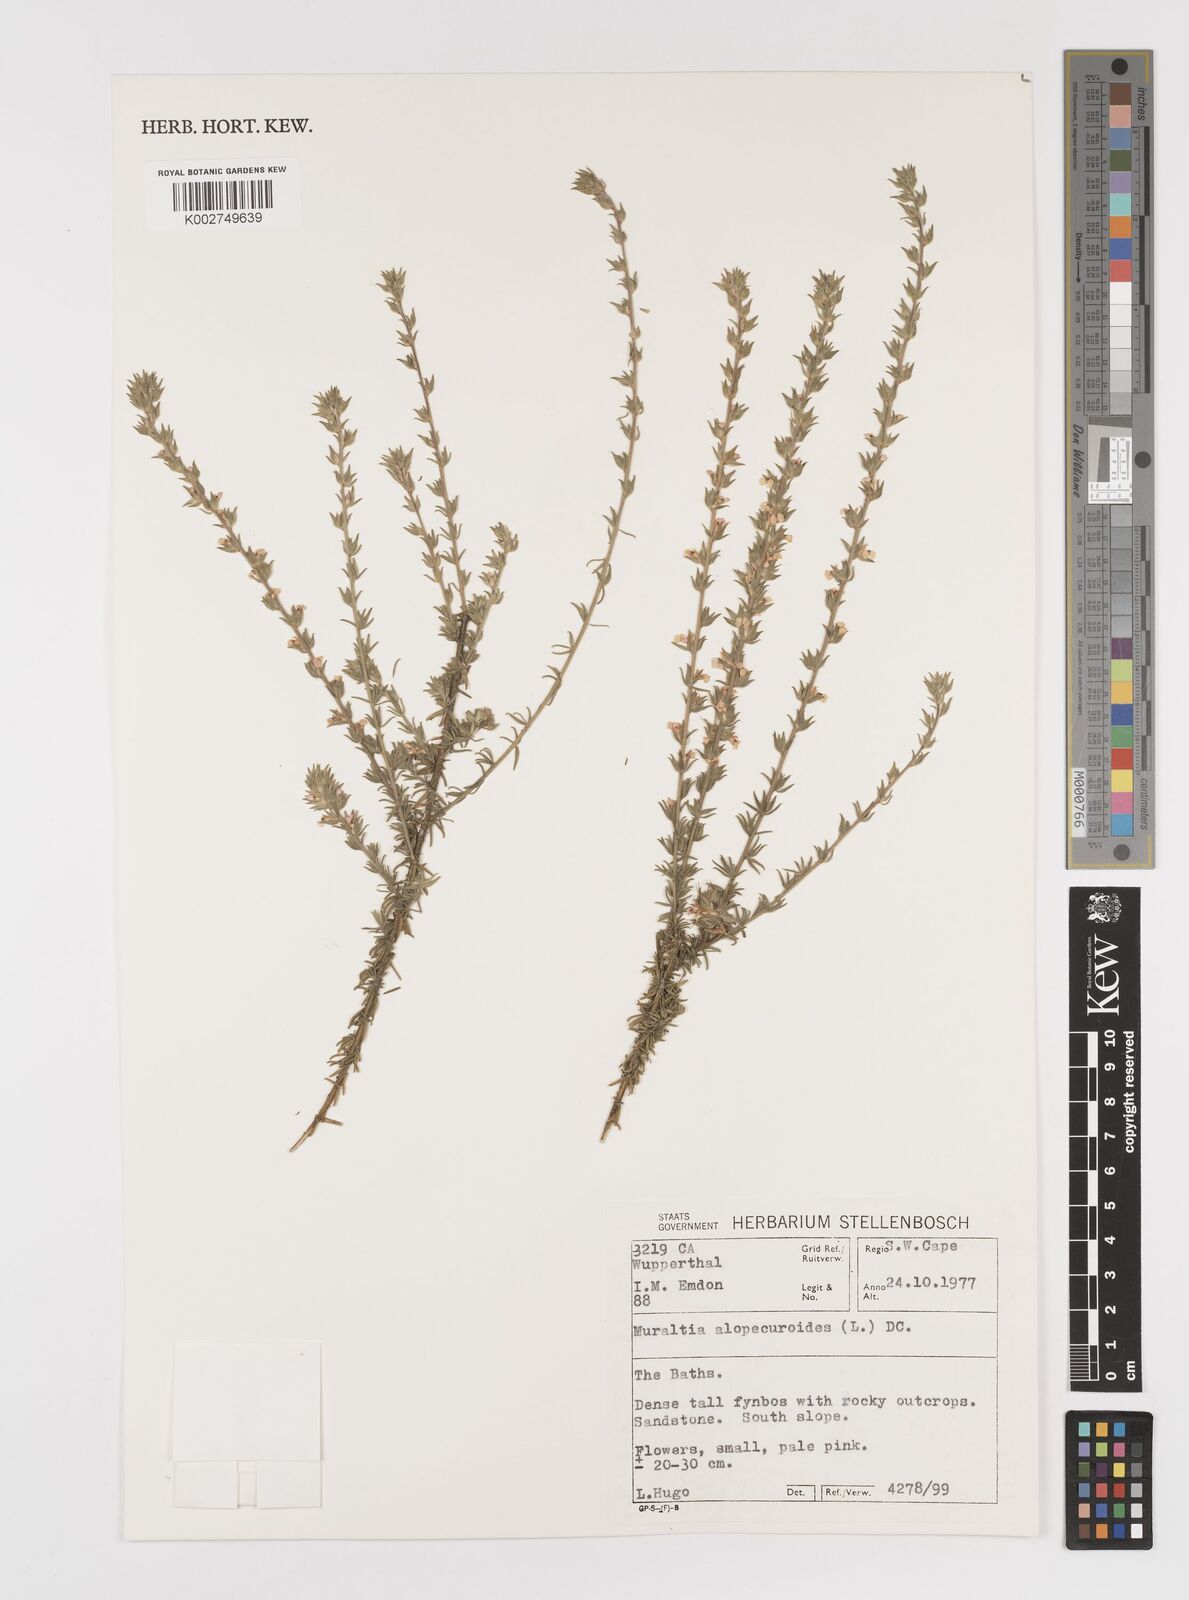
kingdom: Plantae
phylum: Tracheophyta
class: Magnoliopsida
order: Fabales
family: Polygalaceae
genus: Muraltia
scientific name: Muraltia alopecuroides
